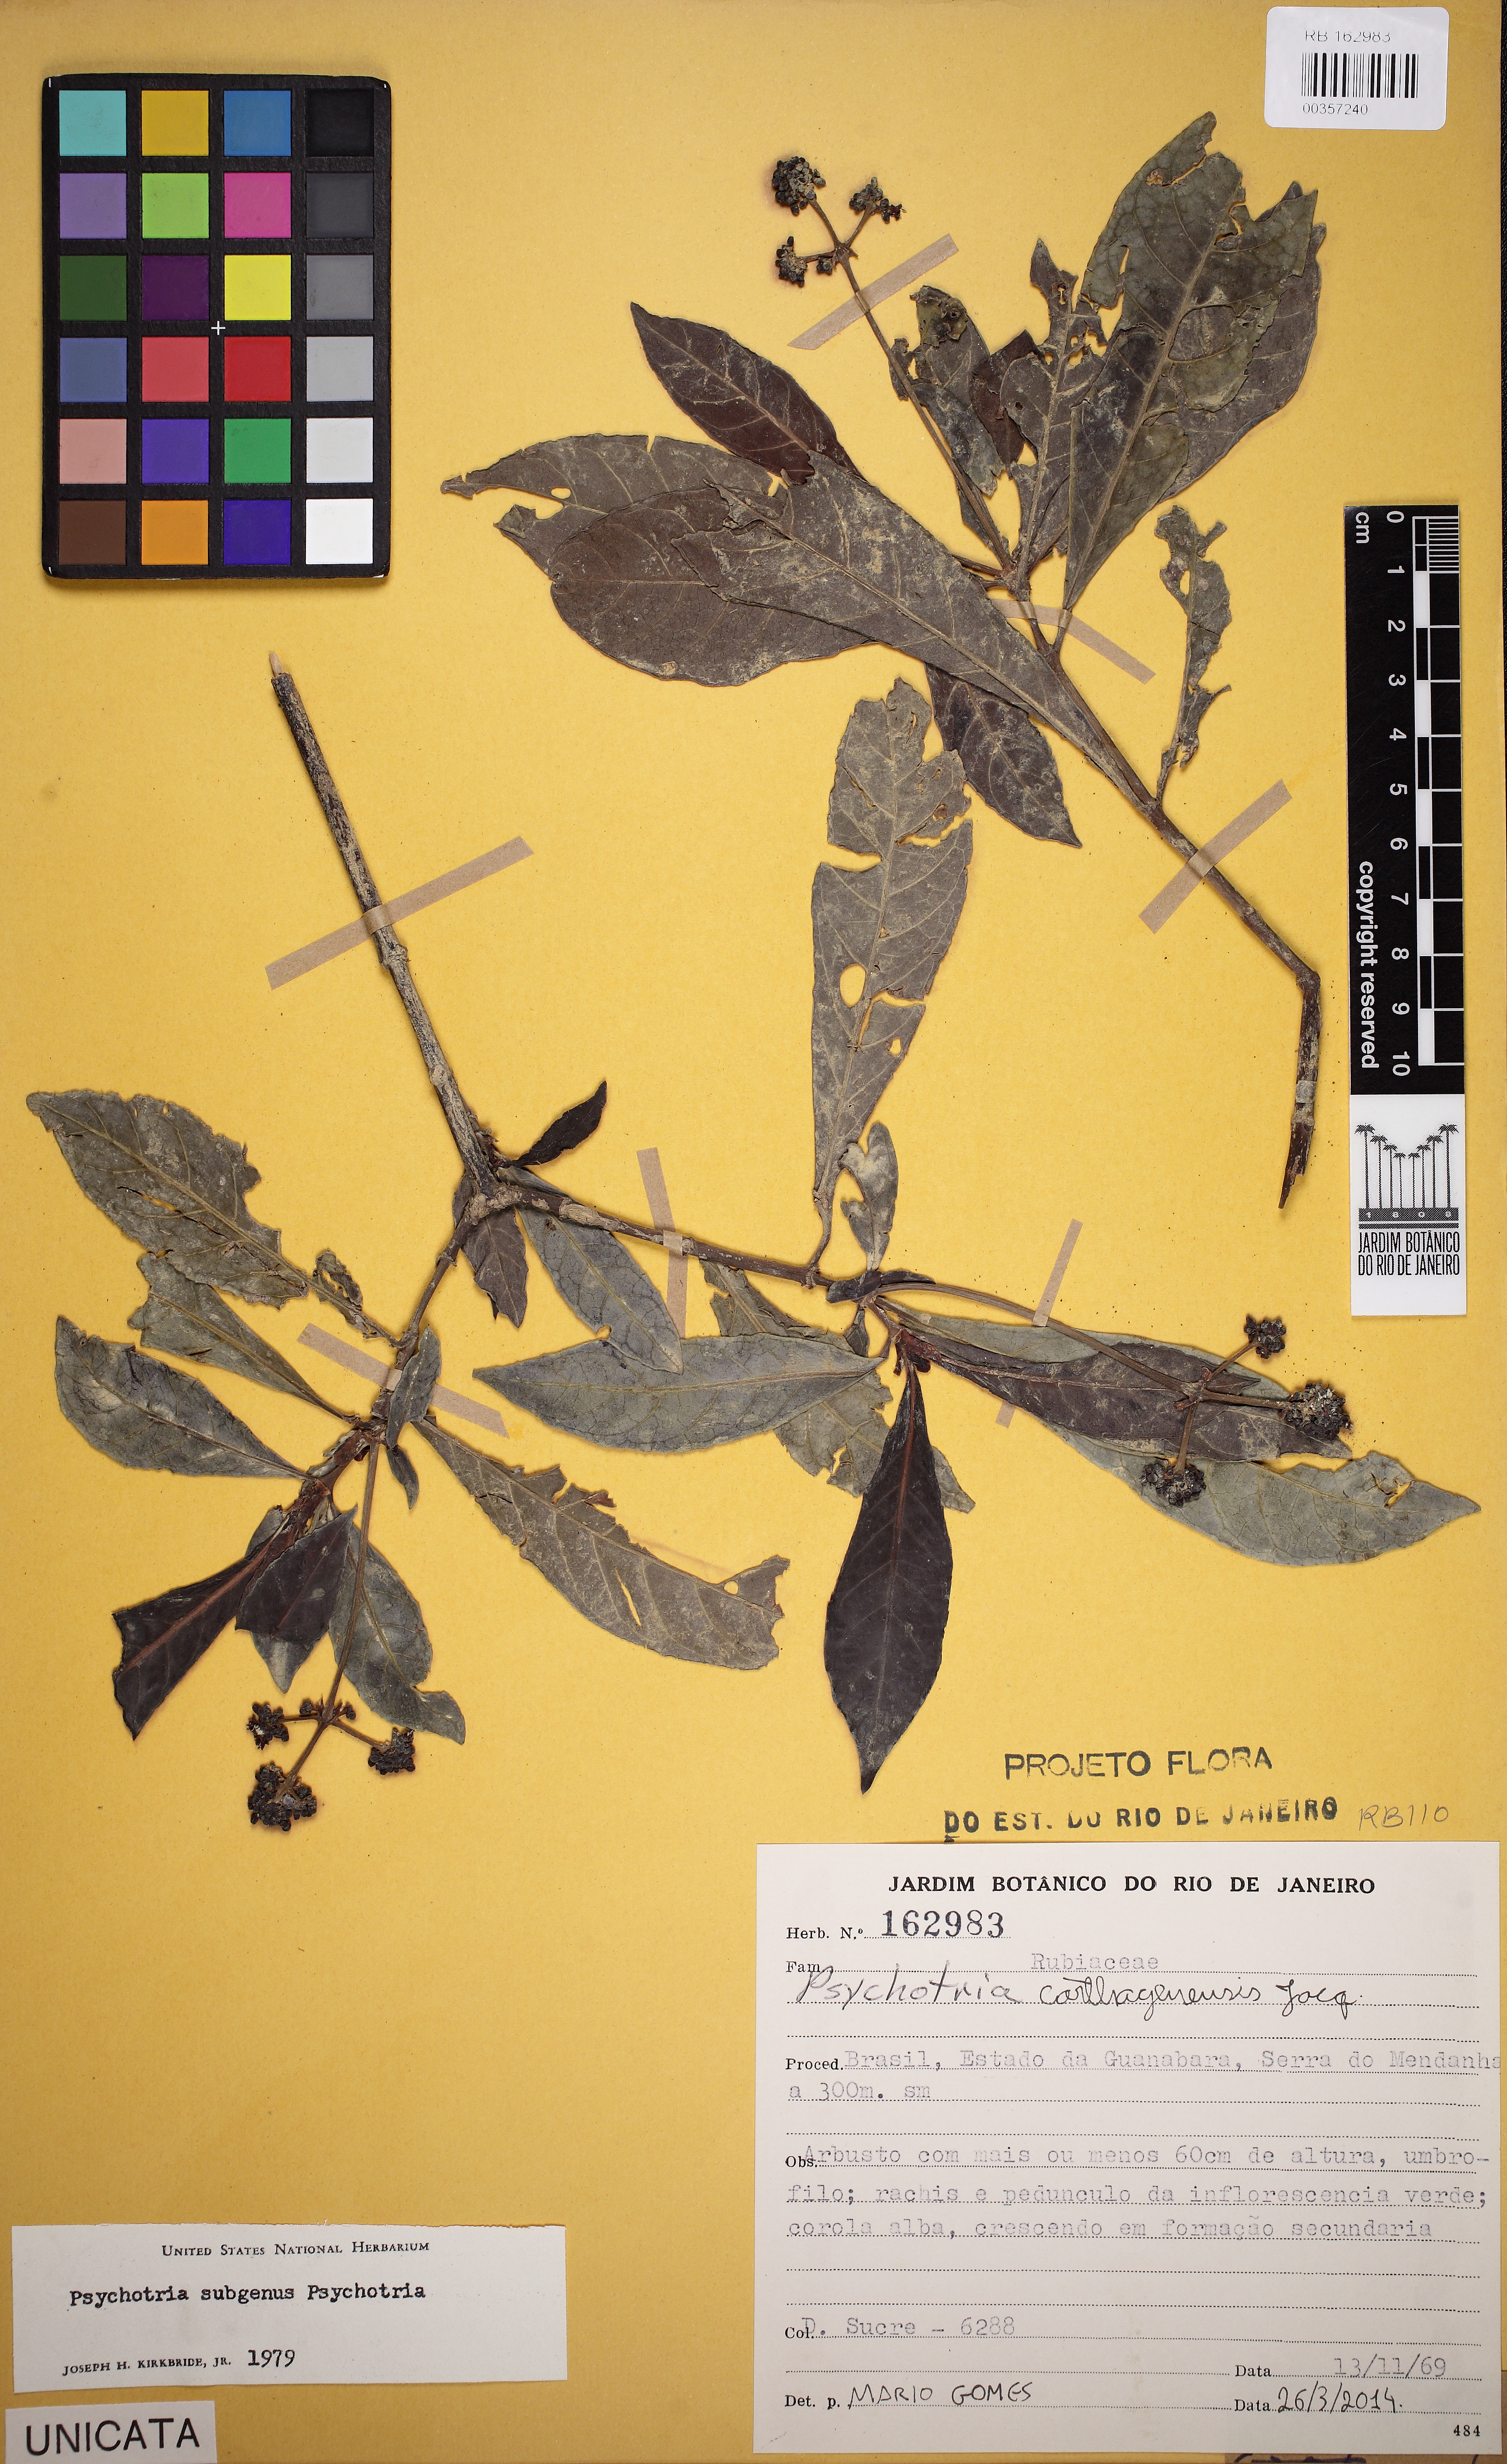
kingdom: Plantae
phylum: Tracheophyta
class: Magnoliopsida
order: Gentianales
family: Rubiaceae
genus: Psychotria
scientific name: Psychotria carthagenensis
